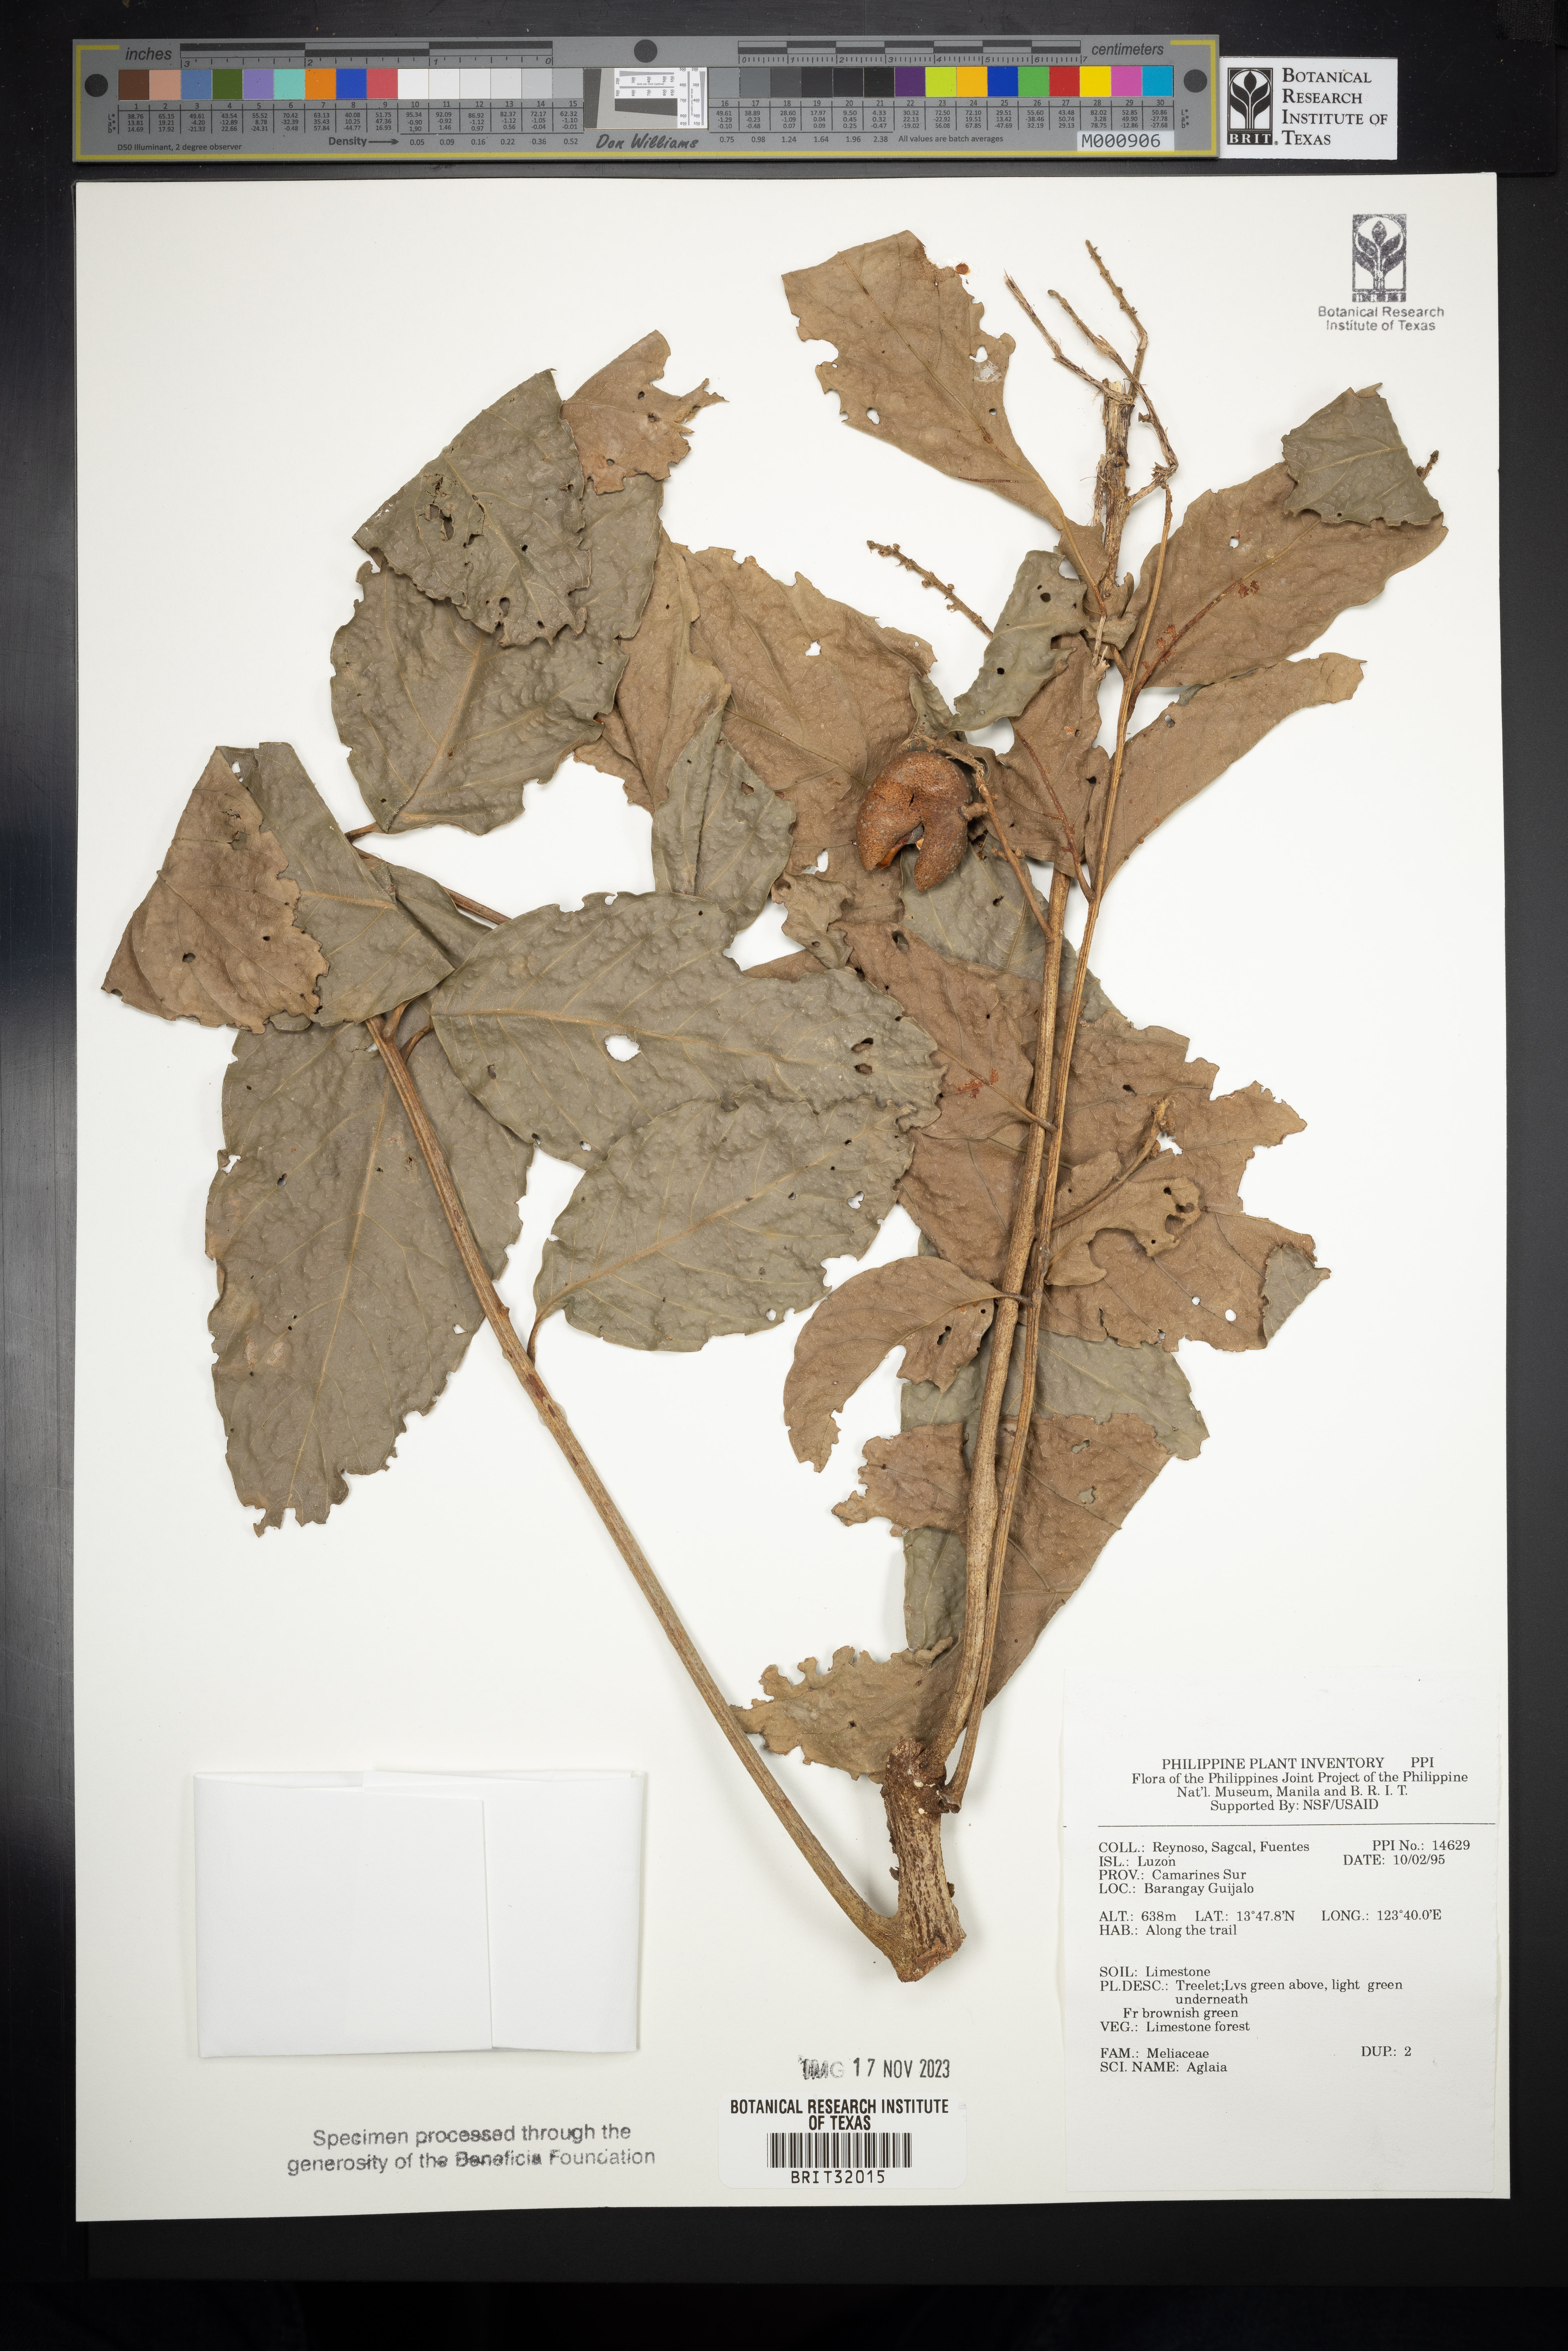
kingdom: Plantae
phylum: Tracheophyta
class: Magnoliopsida
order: Sapindales
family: Meliaceae
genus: Aglaia
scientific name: Aglaia
